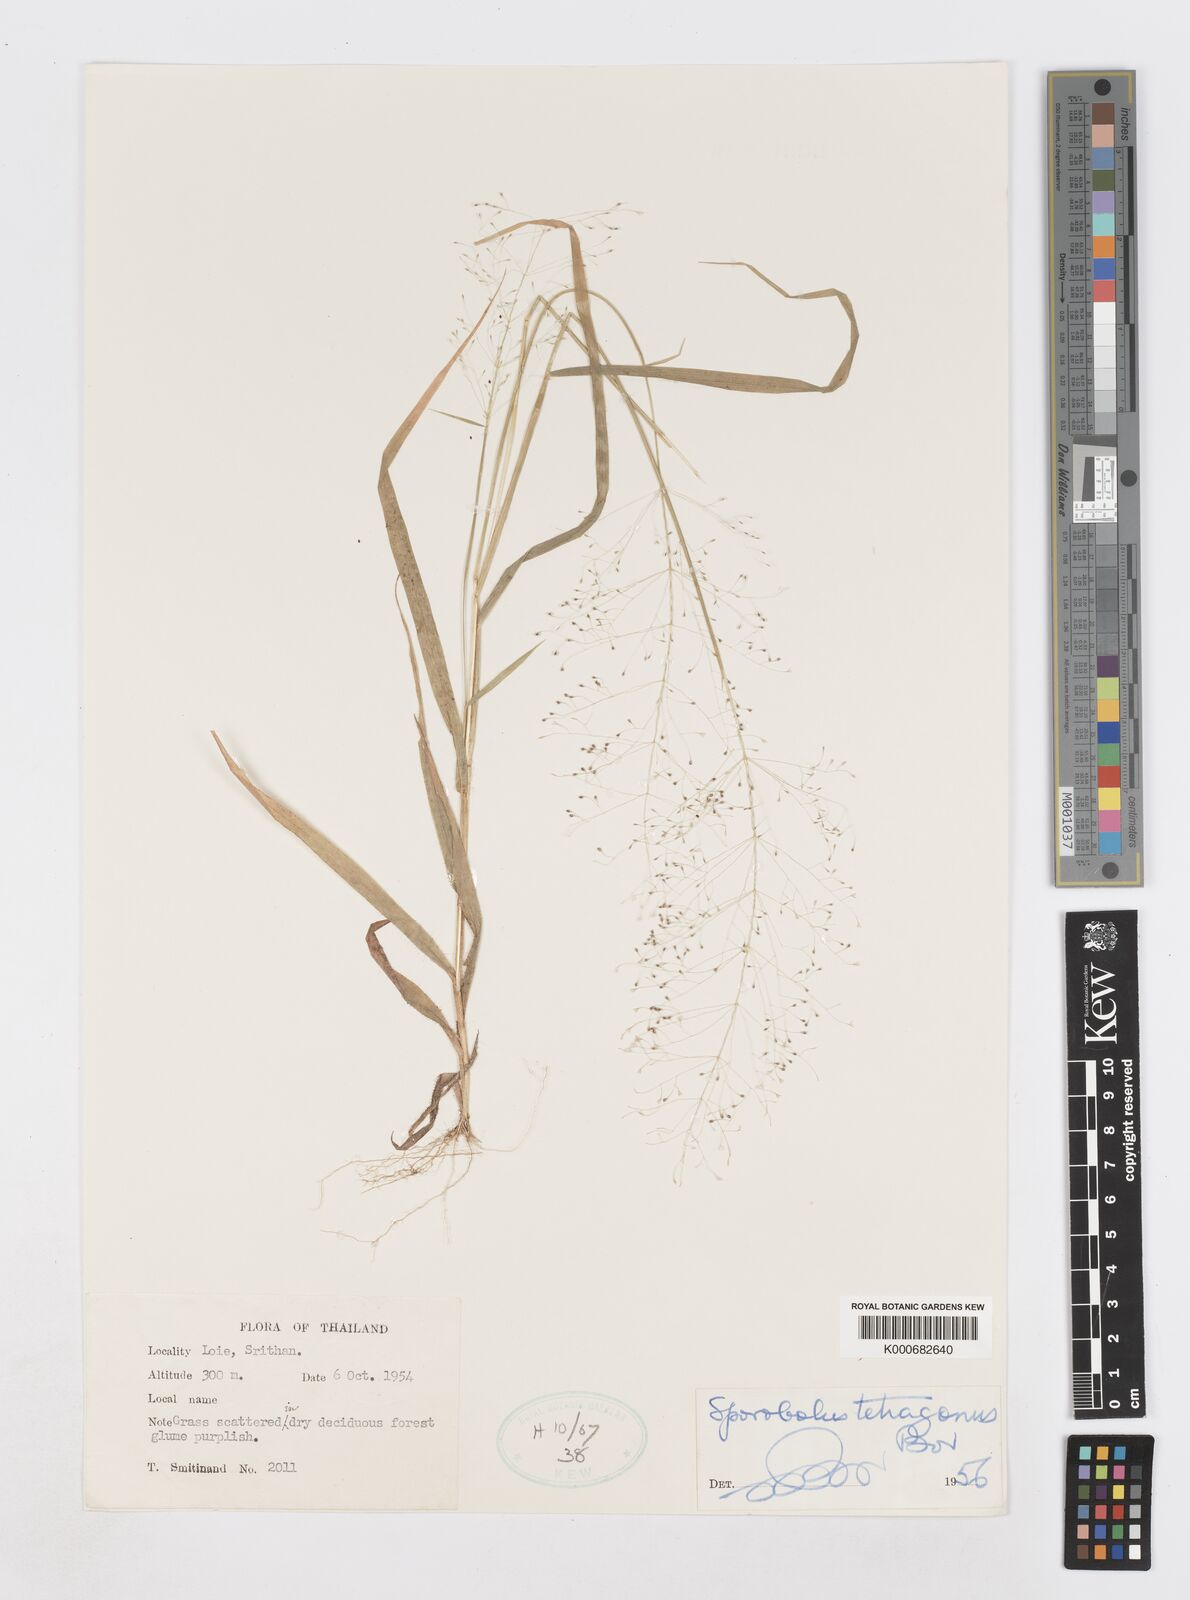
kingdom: Plantae
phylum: Tracheophyta
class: Liliopsida
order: Poales
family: Poaceae
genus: Sporobolus
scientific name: Sporobolus tetragonus
